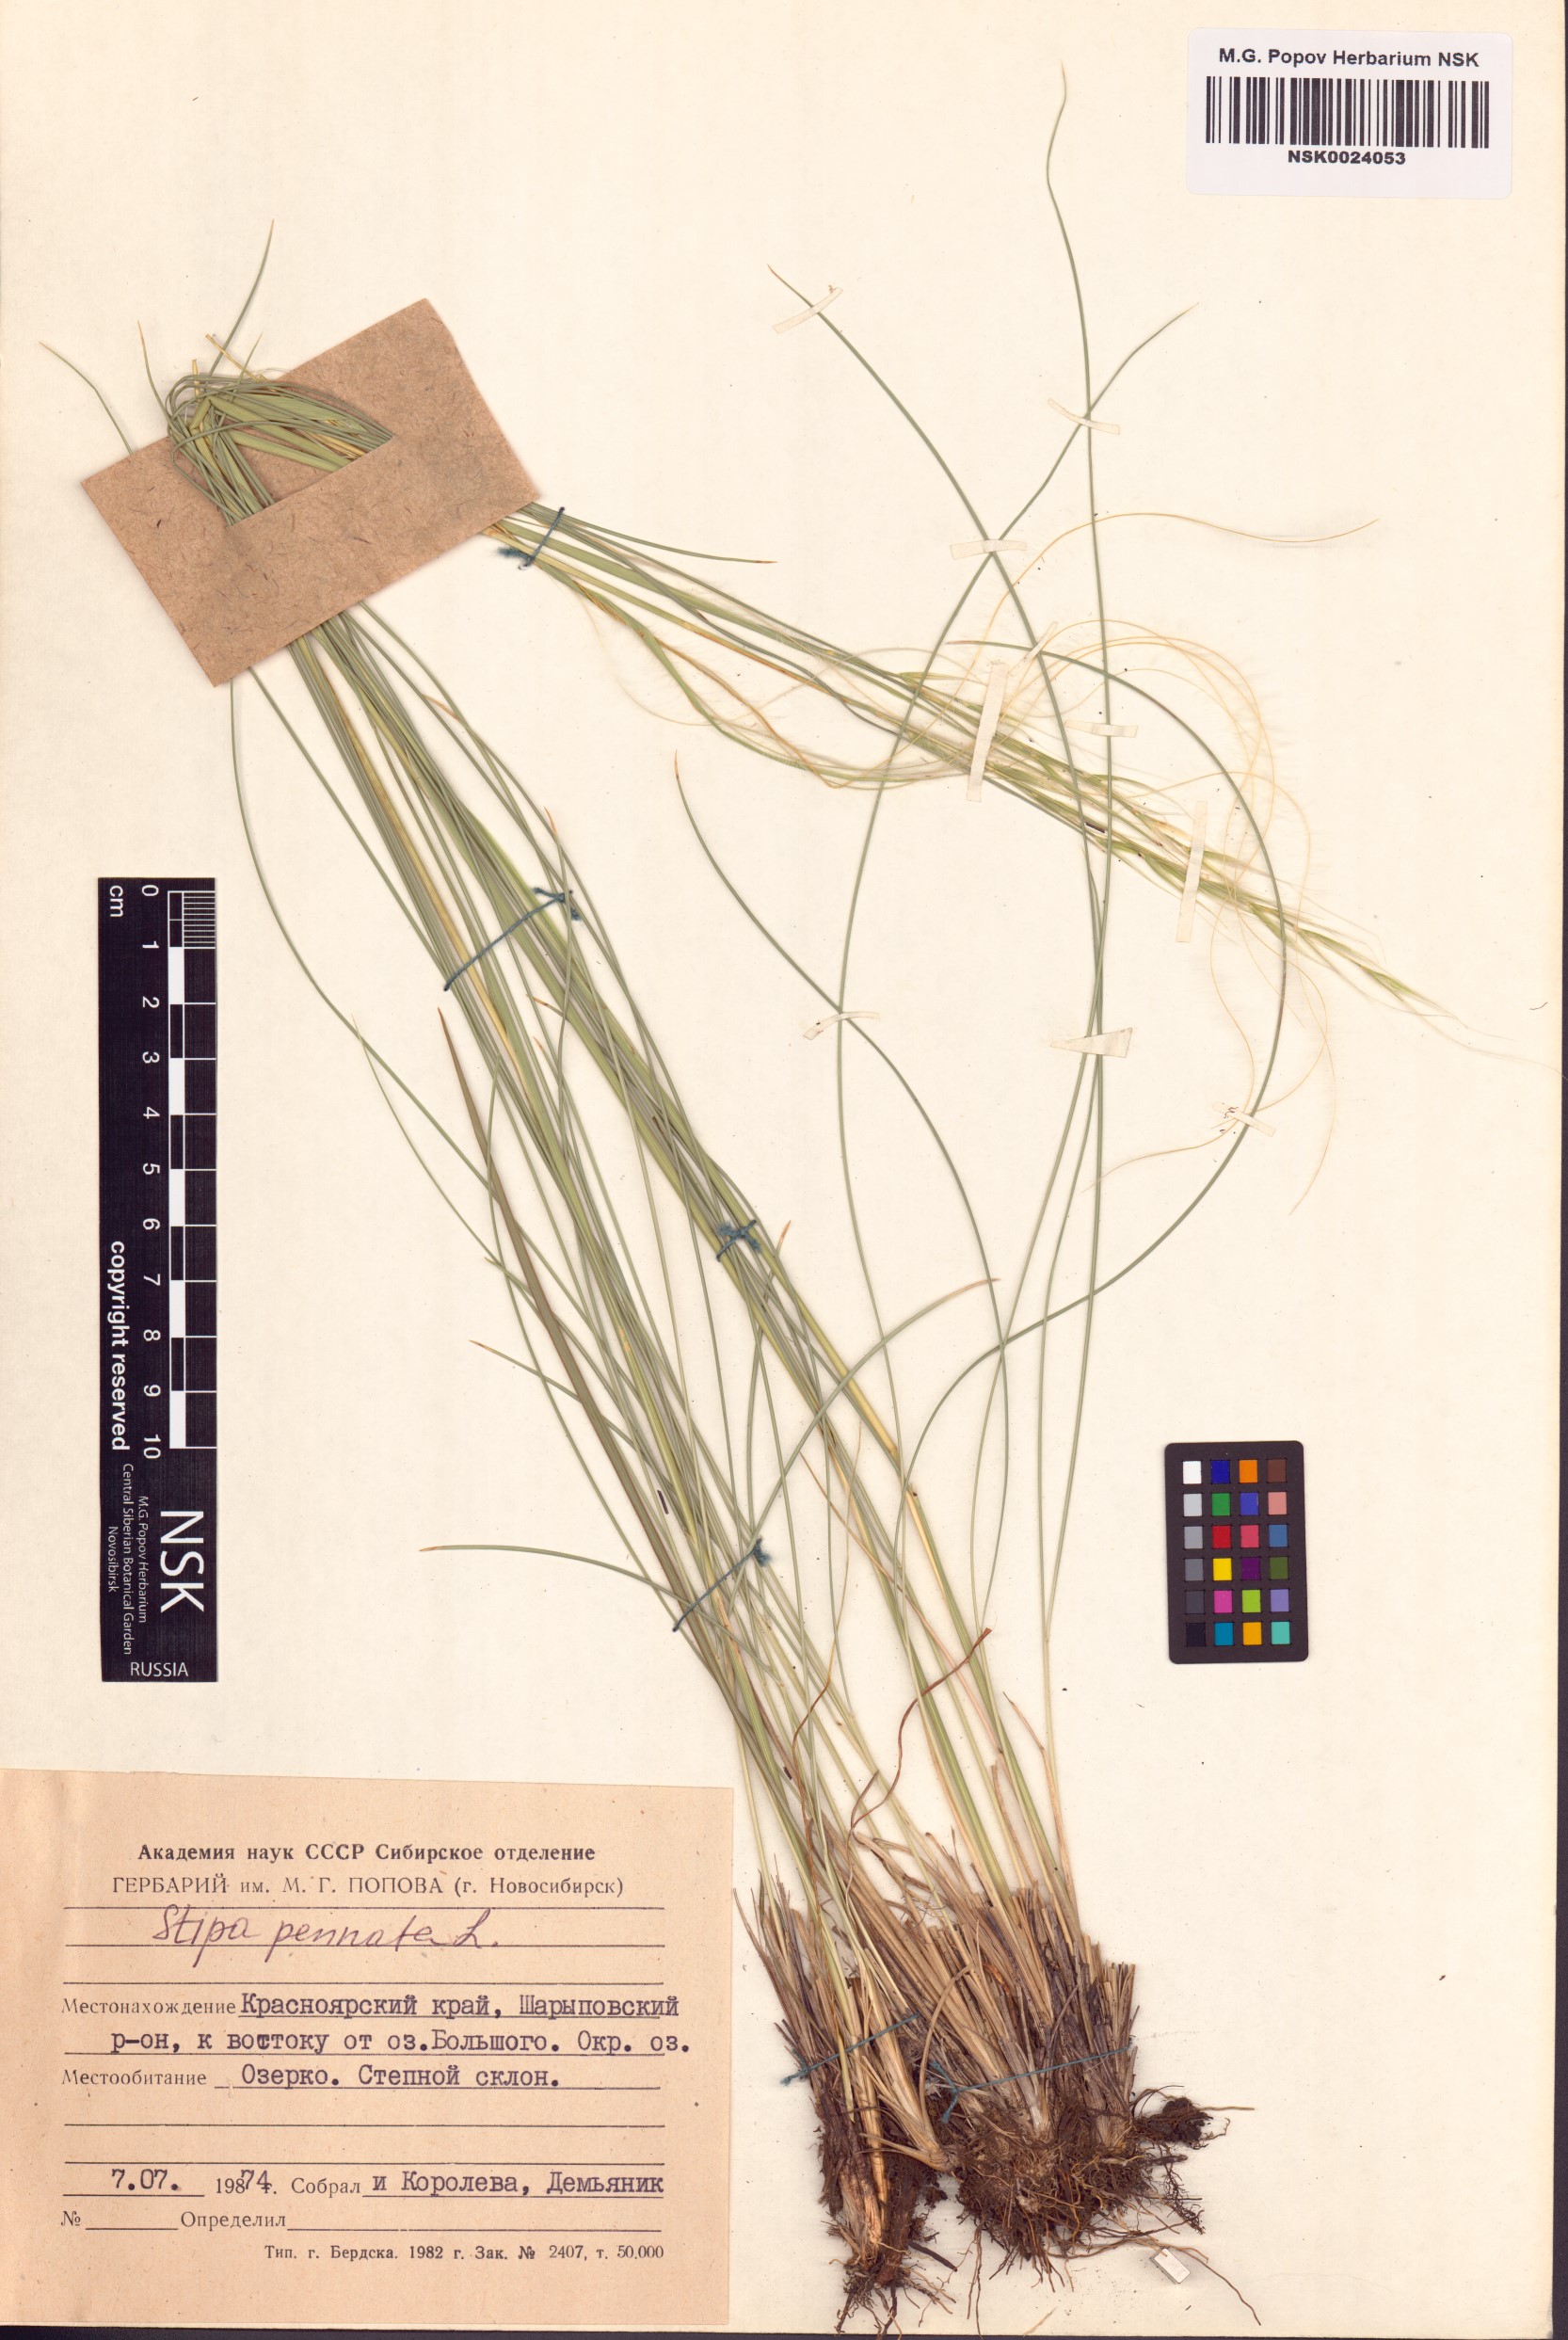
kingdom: Plantae
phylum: Tracheophyta
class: Liliopsida
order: Poales
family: Poaceae
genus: Stipa
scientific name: Stipa pennata
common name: European feather grass
